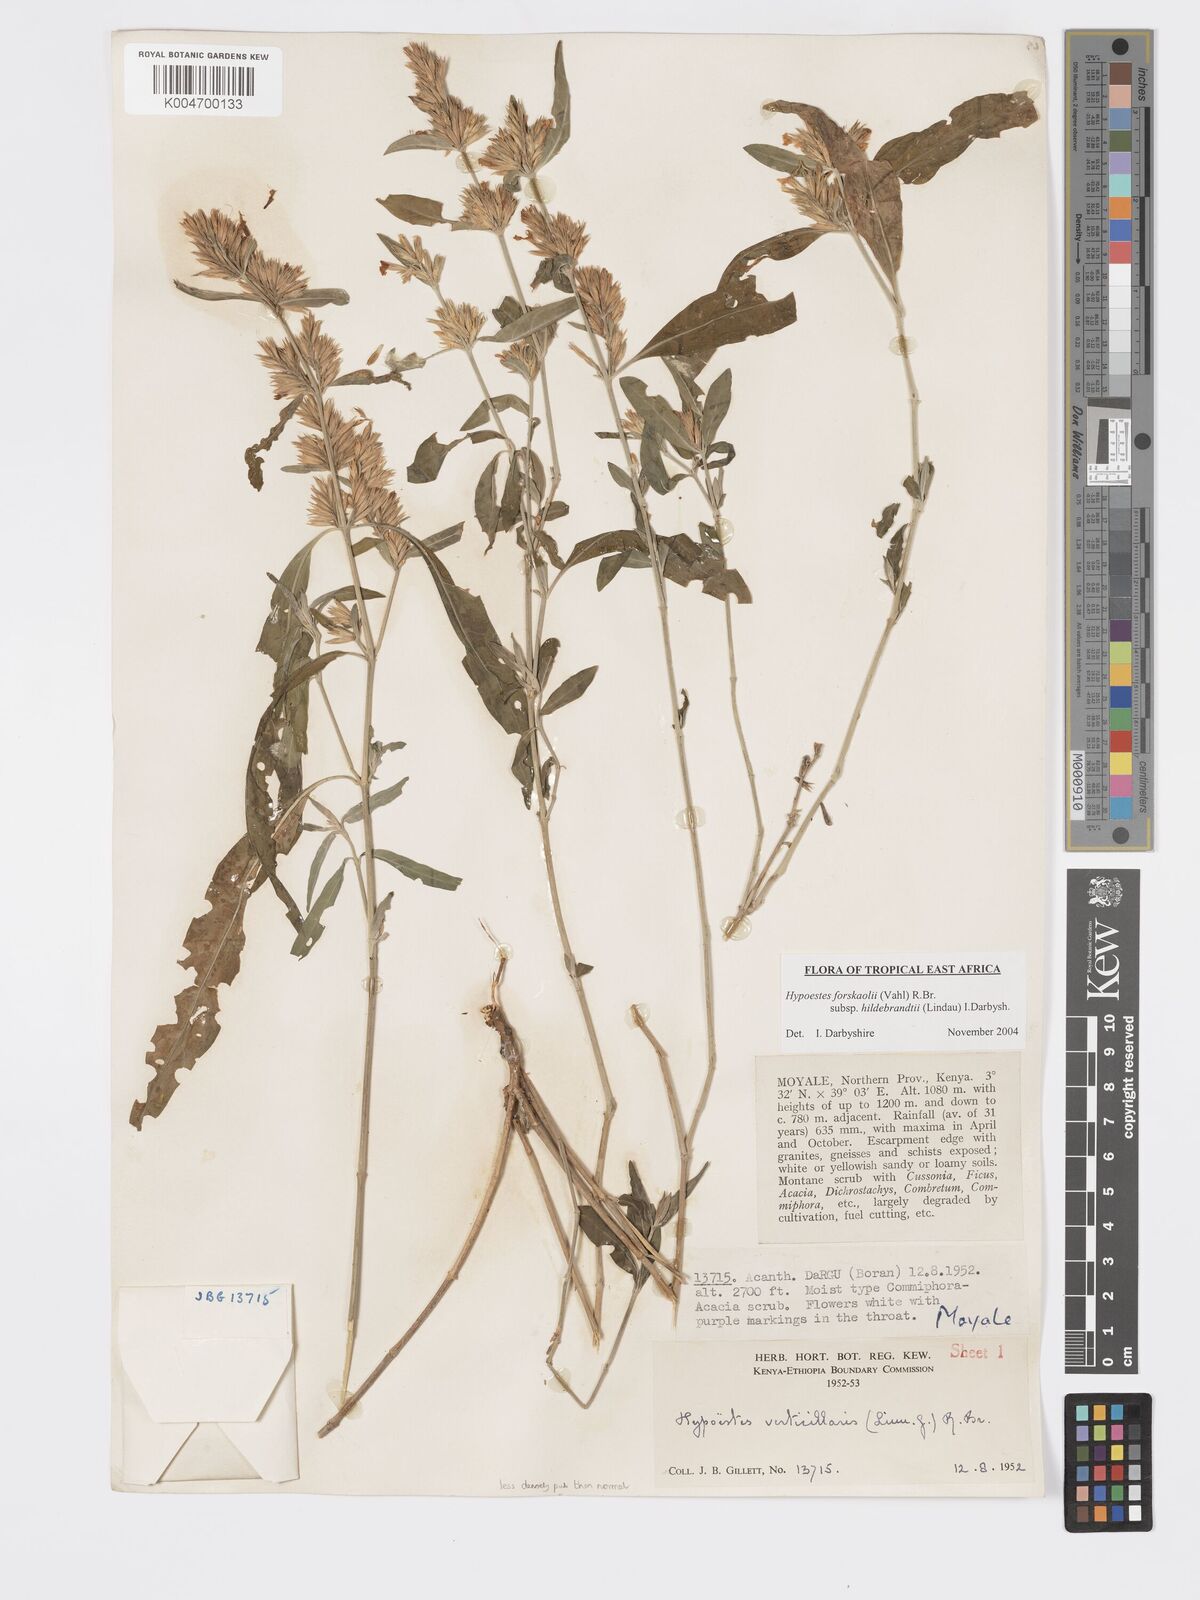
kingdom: Plantae
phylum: Tracheophyta
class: Magnoliopsida
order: Lamiales
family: Acanthaceae
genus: Hypoestes
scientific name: Hypoestes forskaolii
